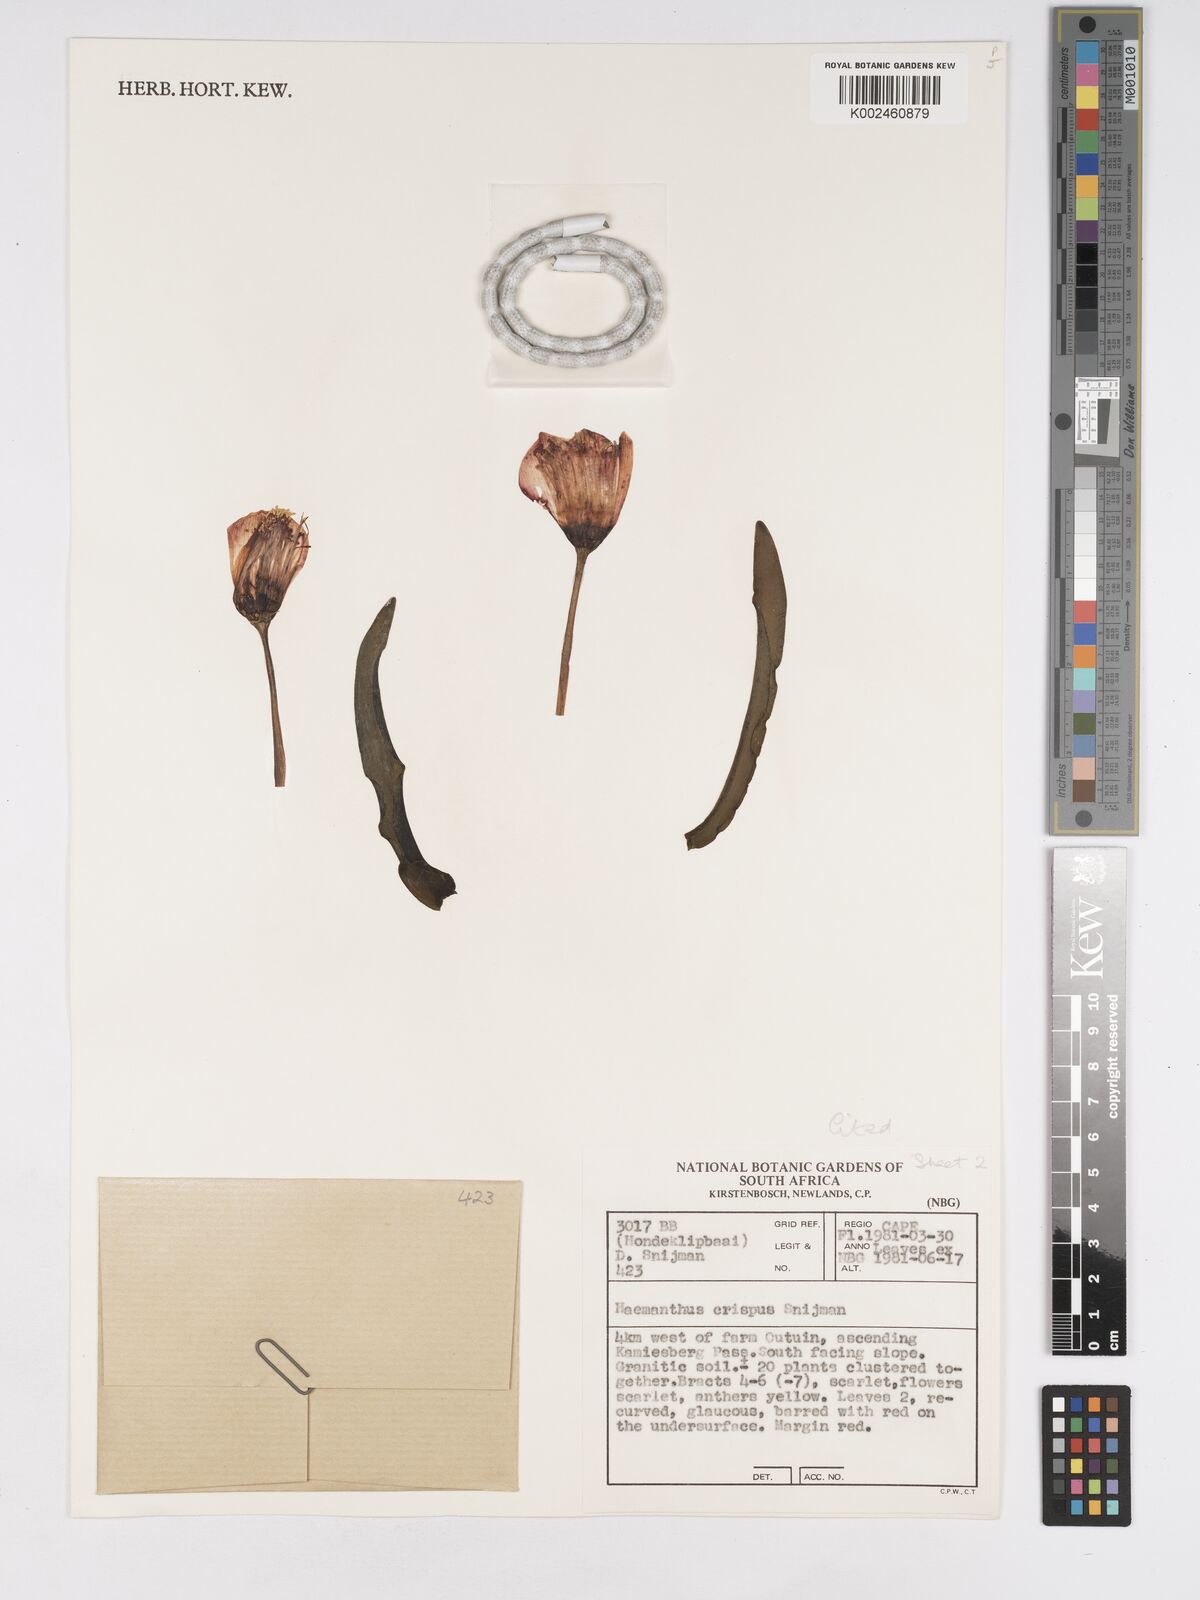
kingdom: Plantae
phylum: Tracheophyta
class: Liliopsida
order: Asparagales
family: Amaryllidaceae
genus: Haemanthus
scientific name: Haemanthus crispus
